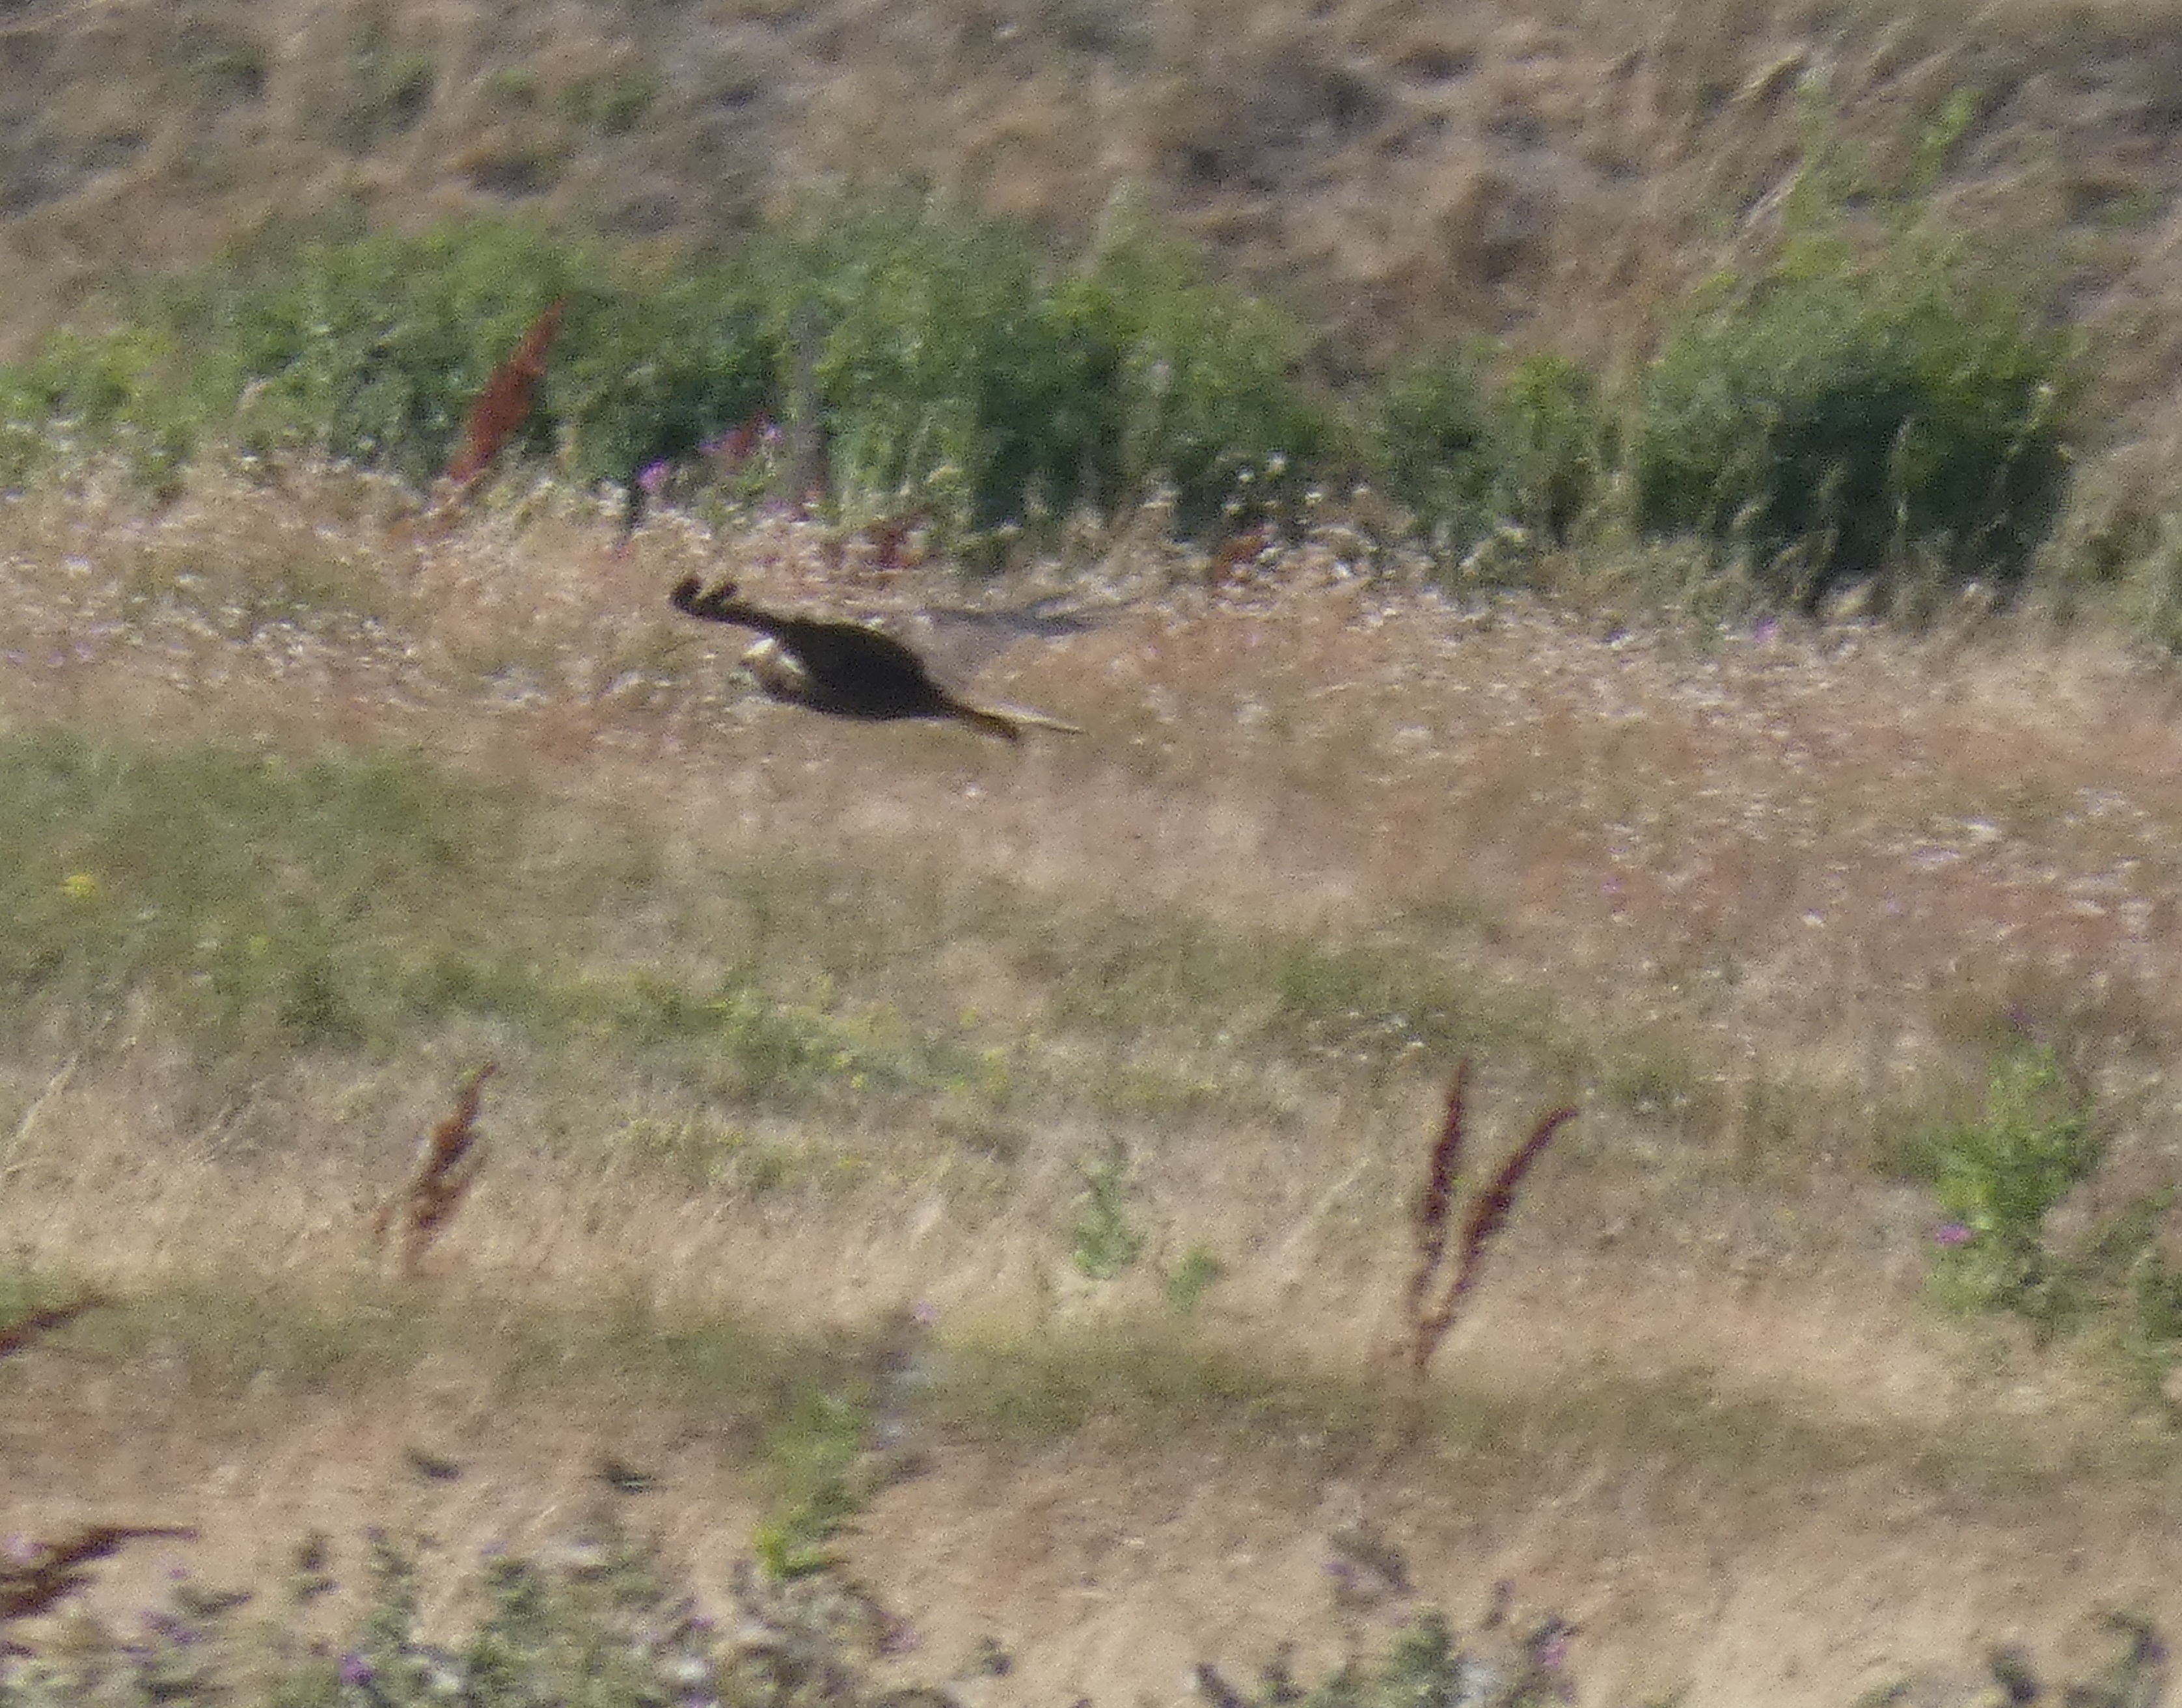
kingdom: Animalia
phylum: Chordata
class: Aves
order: Accipitriformes
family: Accipitridae
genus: Circus
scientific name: Circus aeruginosus
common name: Rørhøg
